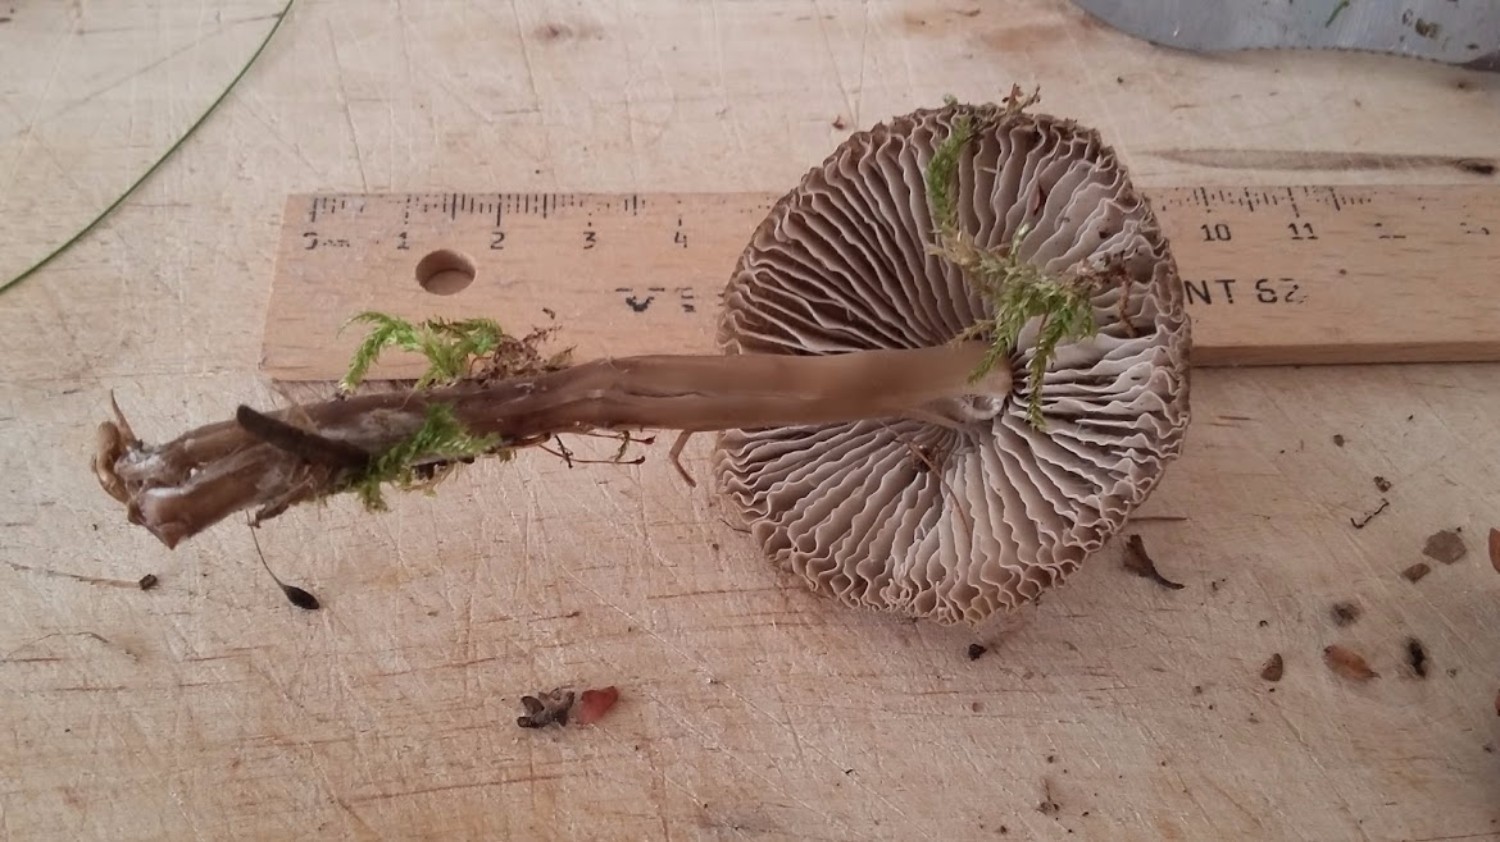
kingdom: Fungi
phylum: Basidiomycota
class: Agaricomycetes
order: Agaricales
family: Mycenaceae
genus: Mycena
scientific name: Mycena galericulata
